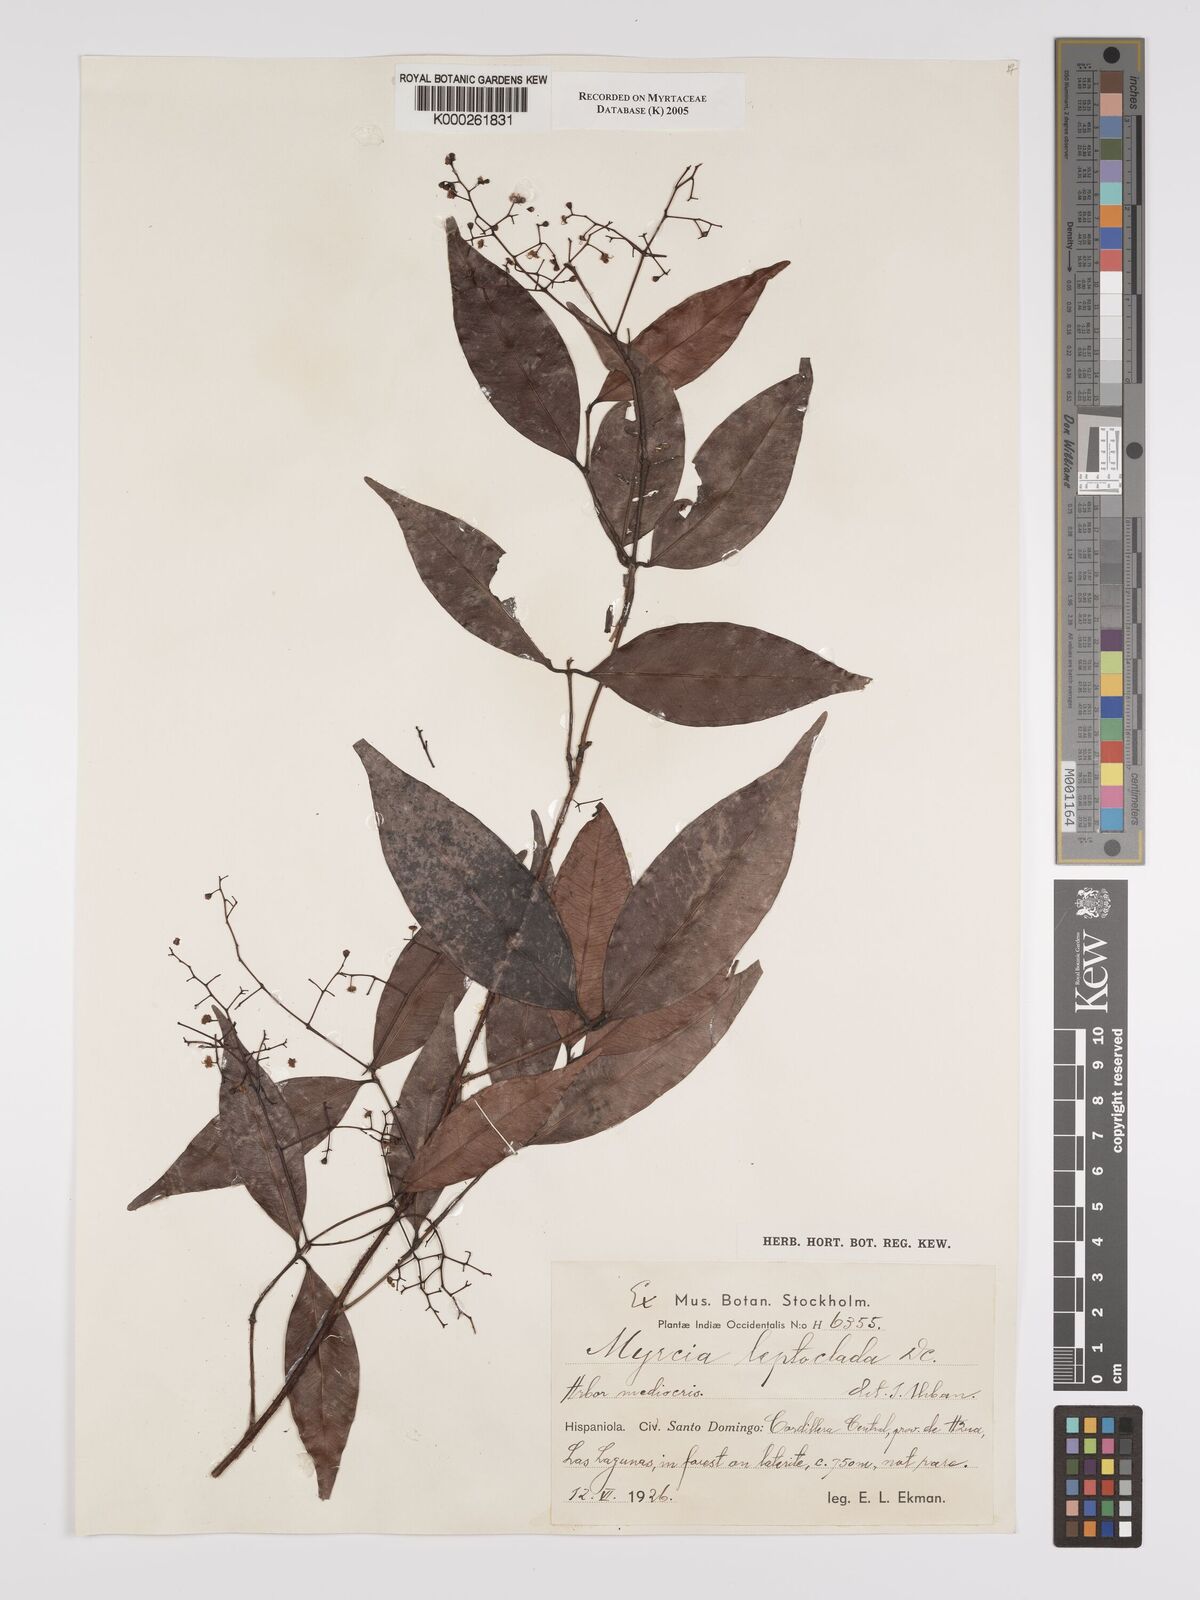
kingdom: Plantae
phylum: Tracheophyta
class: Magnoliopsida
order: Myrtales
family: Myrtaceae
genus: Myrcia
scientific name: Myrcia amazonica
